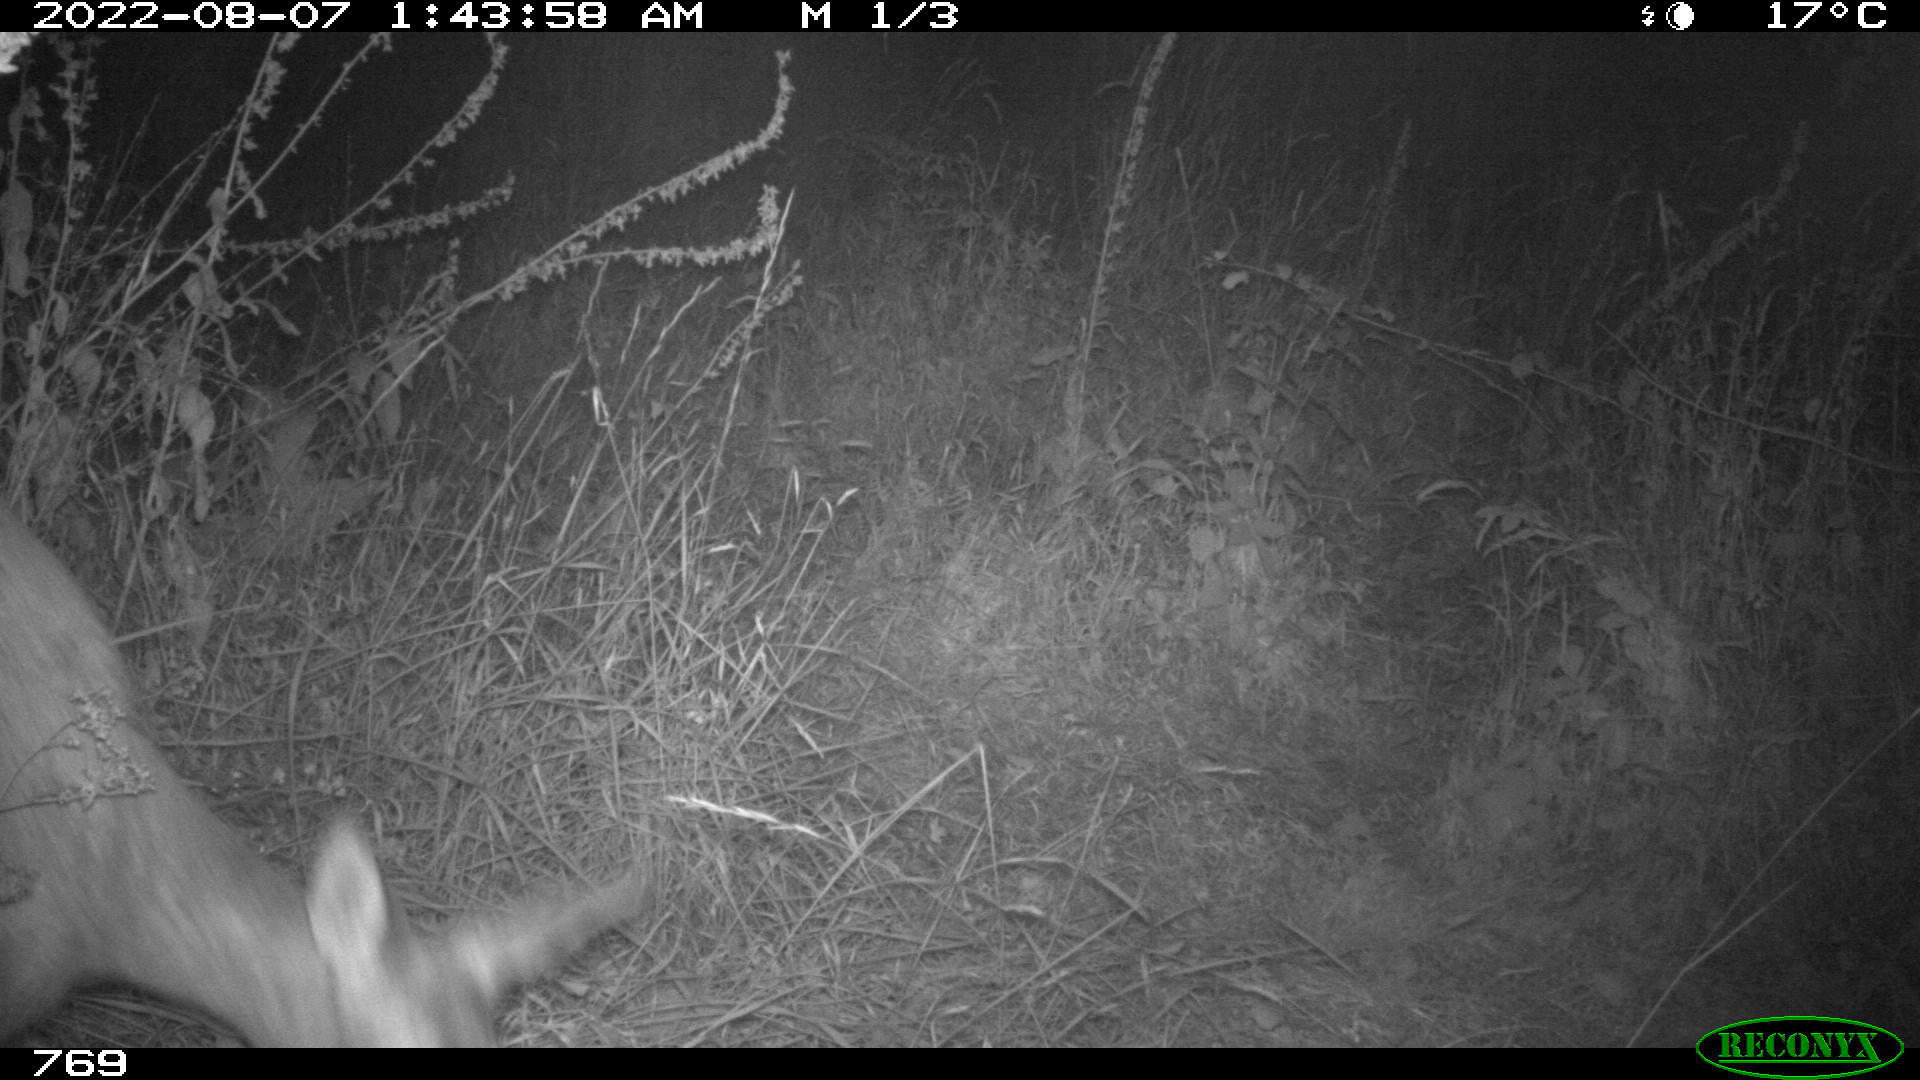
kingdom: Animalia
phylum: Chordata
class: Mammalia
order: Artiodactyla
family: Cervidae
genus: Capreolus
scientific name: Capreolus capreolus
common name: Western roe deer
